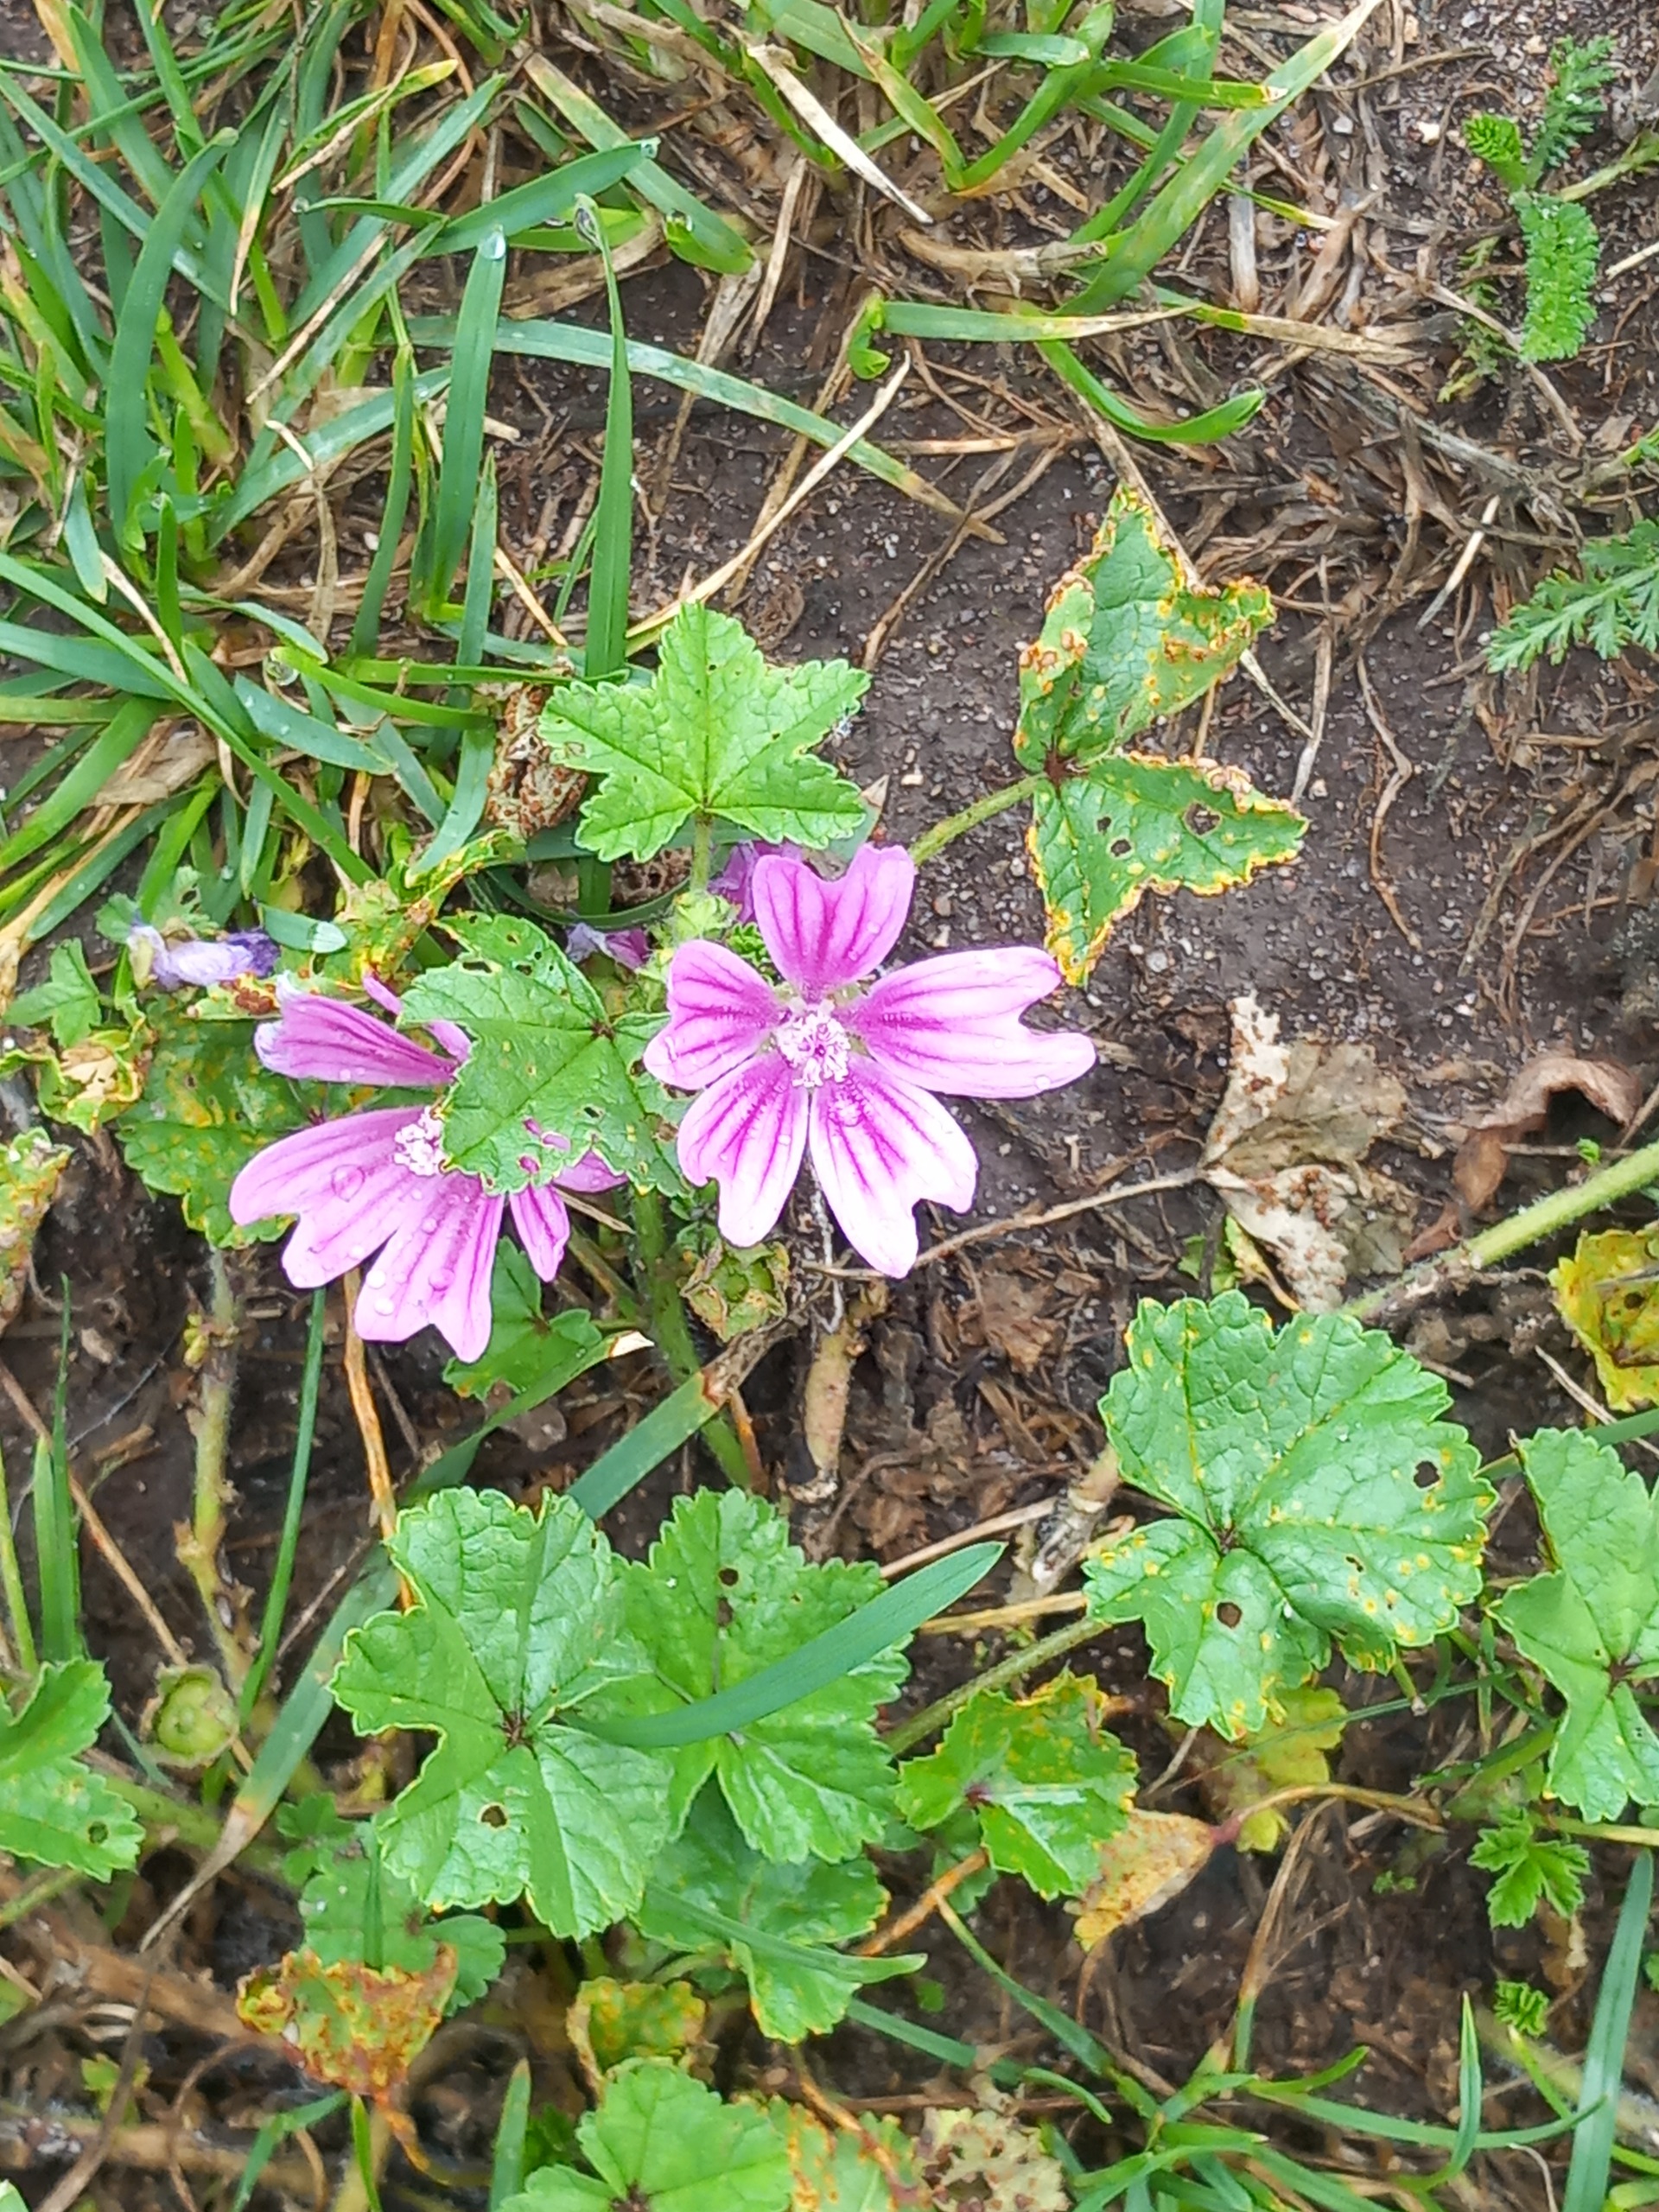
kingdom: Plantae
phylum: Tracheophyta
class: Magnoliopsida
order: Malvales
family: Malvaceae
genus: Malva
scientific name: Malva sylvestris
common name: Almindelig katost
